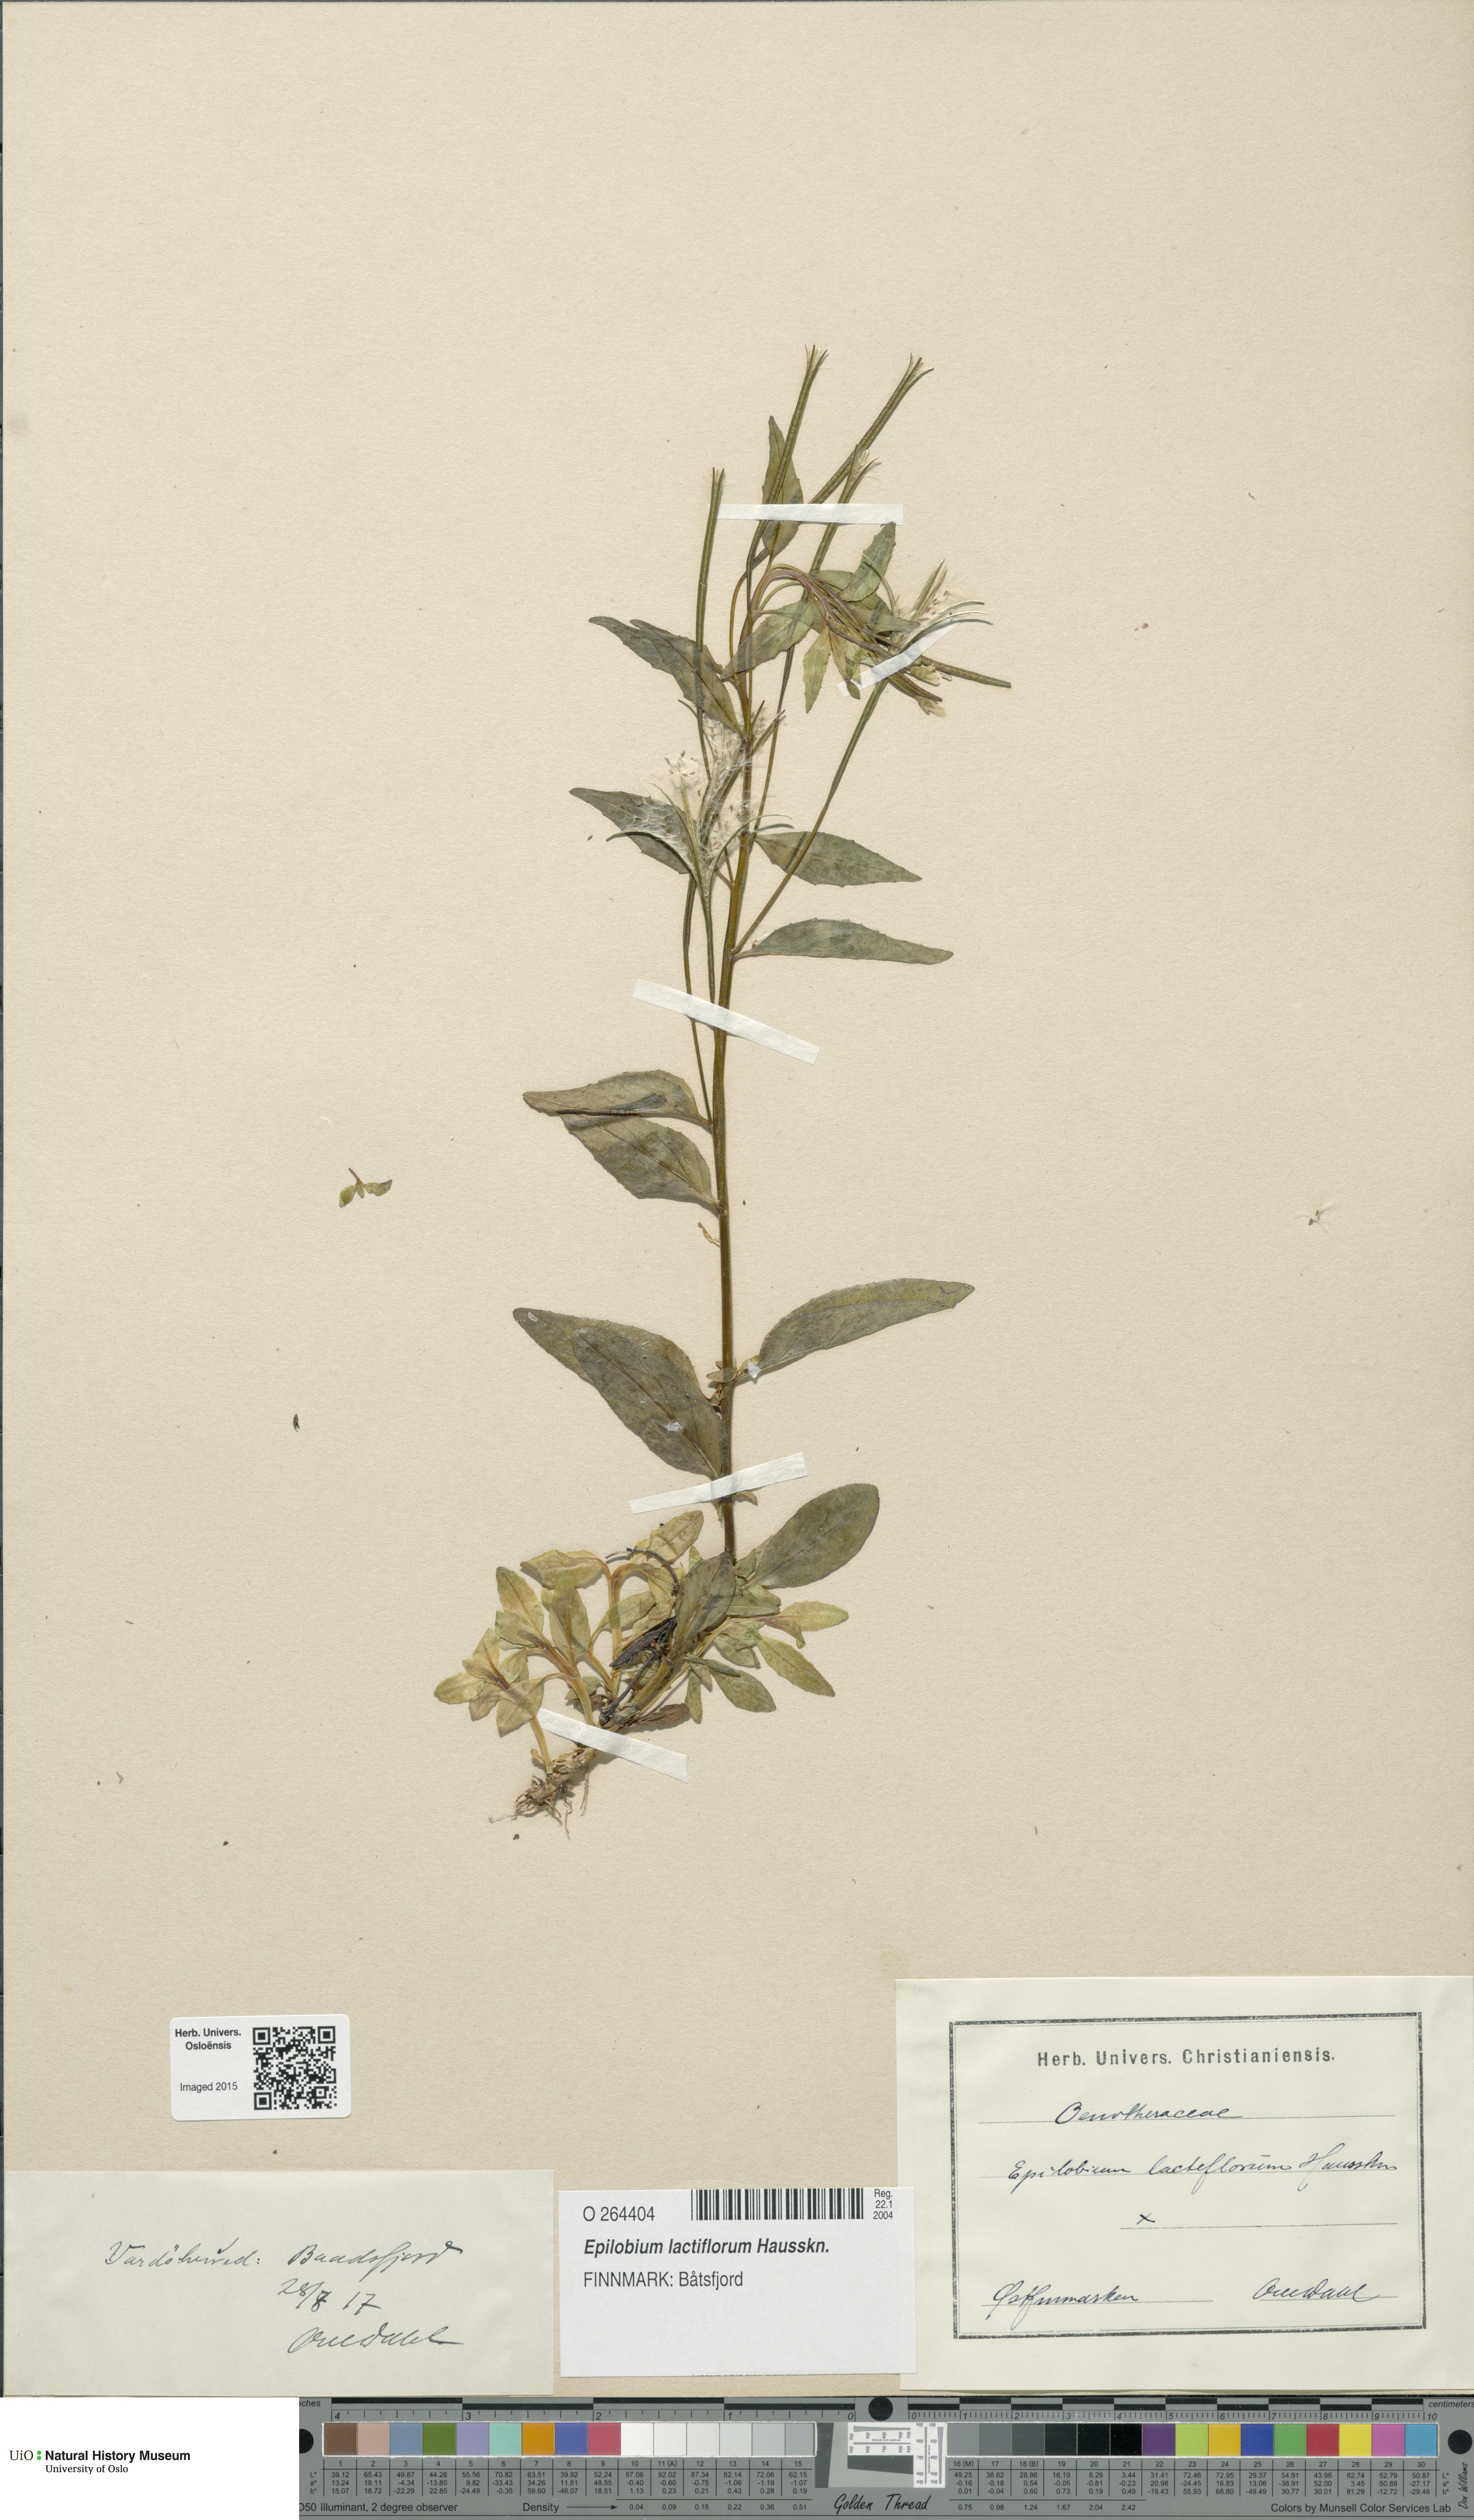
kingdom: Plantae
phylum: Tracheophyta
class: Magnoliopsida
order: Myrtales
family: Onagraceae
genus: Epilobium
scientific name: Epilobium lactiflorum
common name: Milkflower willowherb
